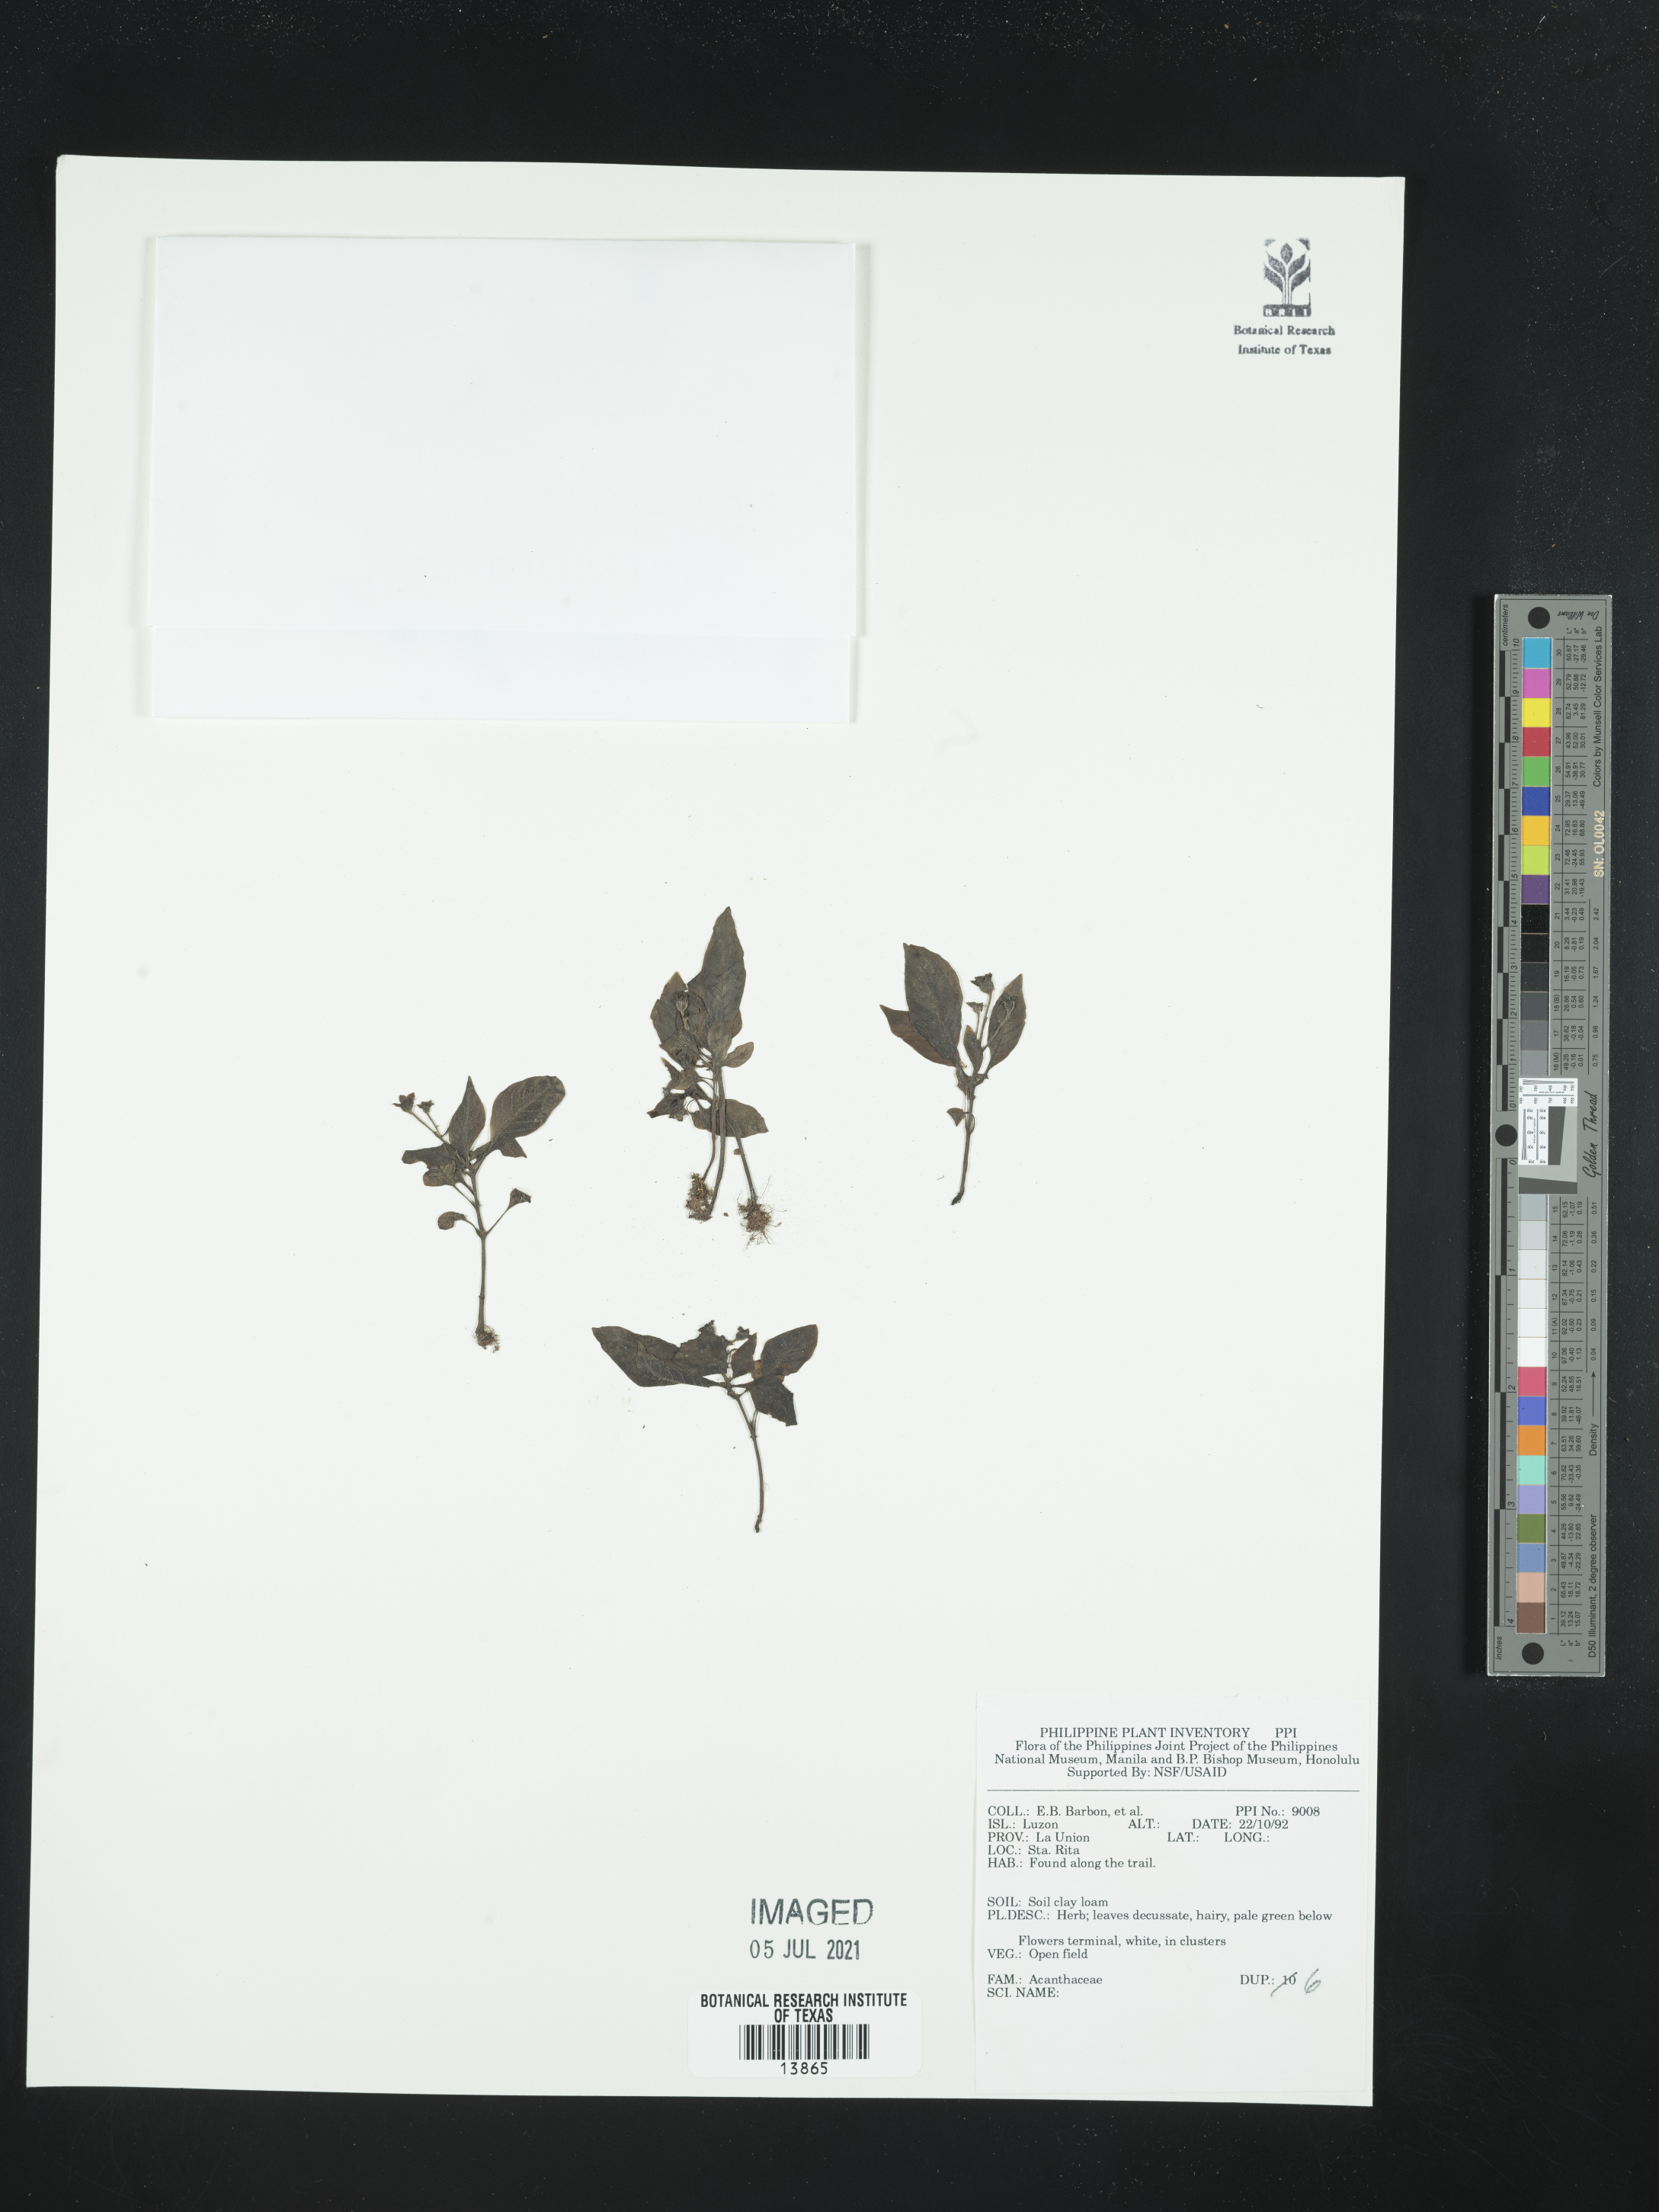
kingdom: Plantae
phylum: Tracheophyta
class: Magnoliopsida
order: Lamiales
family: Acanthaceae
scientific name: Acanthaceae
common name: Acanthaceae
